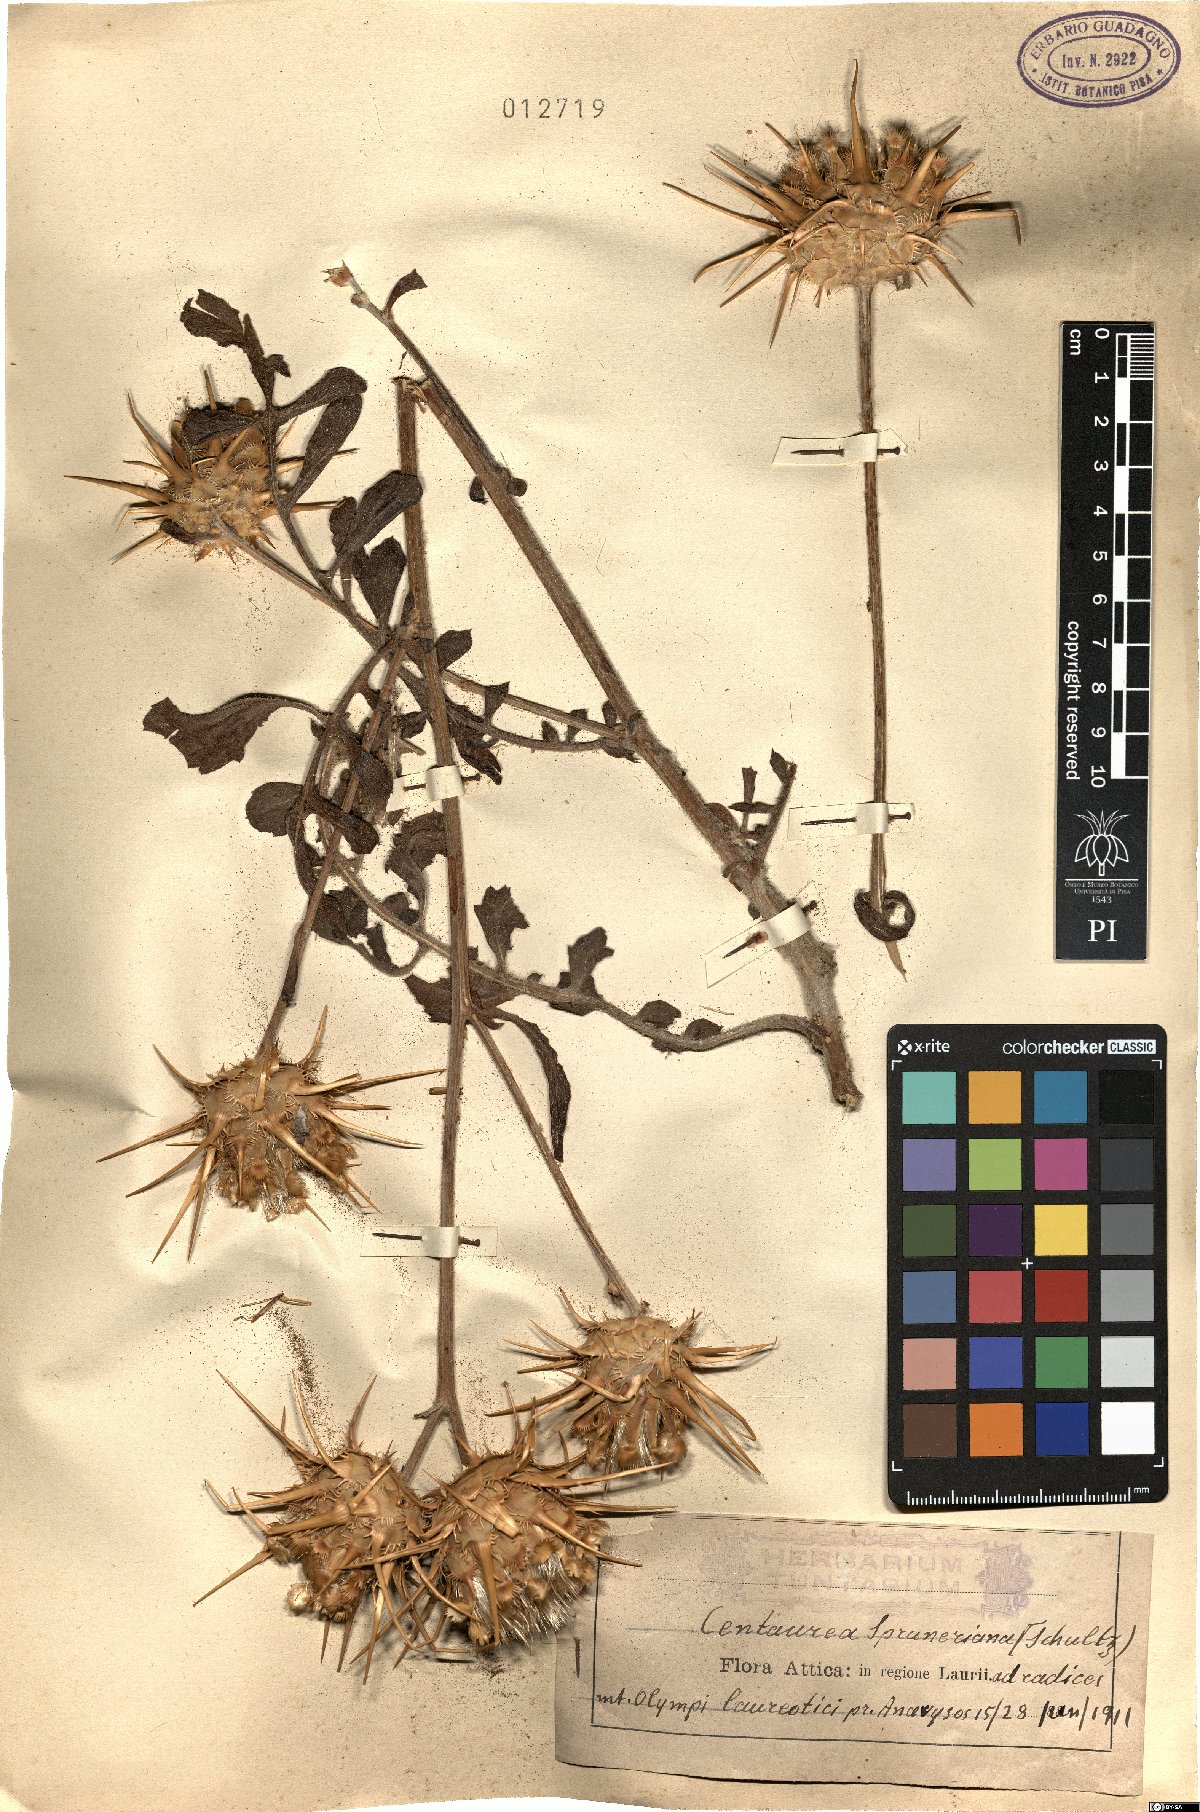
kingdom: Plantae
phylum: Tracheophyta
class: Magnoliopsida
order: Asterales
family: Asteraceae
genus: Centaurea
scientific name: Centaurea spruneri
